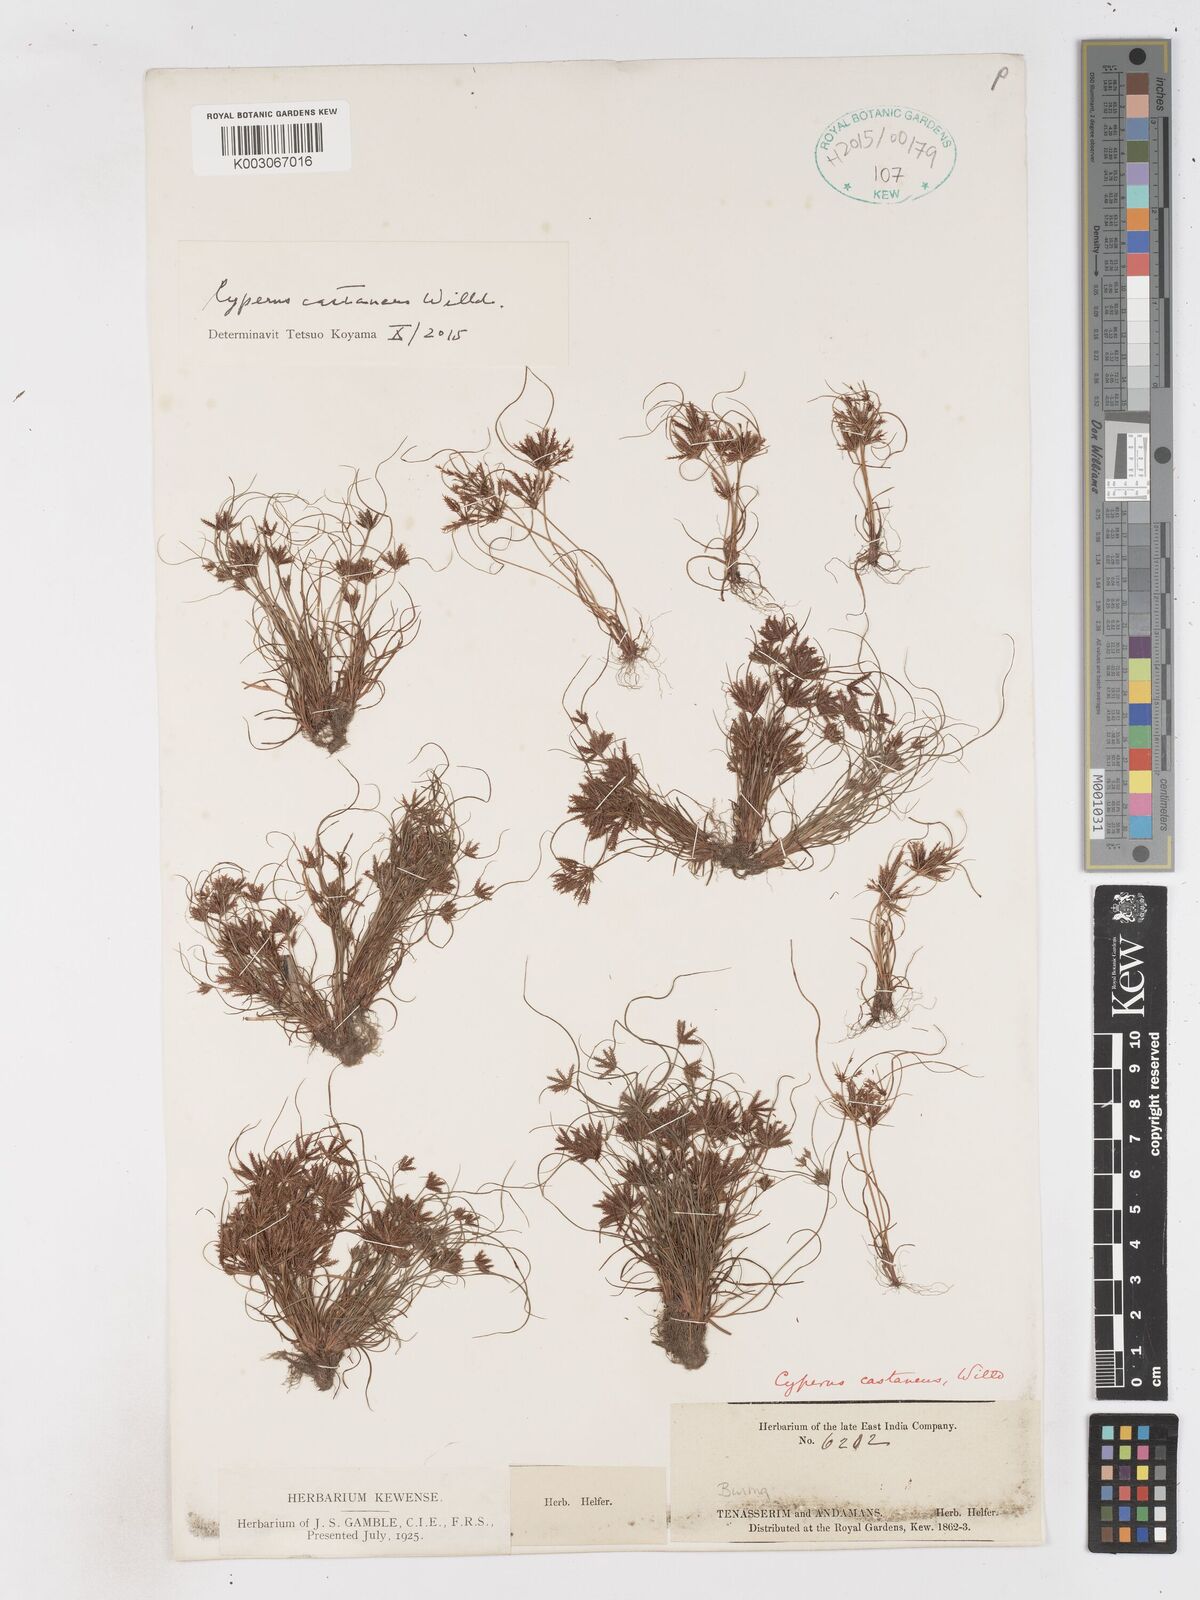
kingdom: Plantae
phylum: Tracheophyta
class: Liliopsida
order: Poales
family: Cyperaceae
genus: Cyperus
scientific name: Cyperus castaneus
